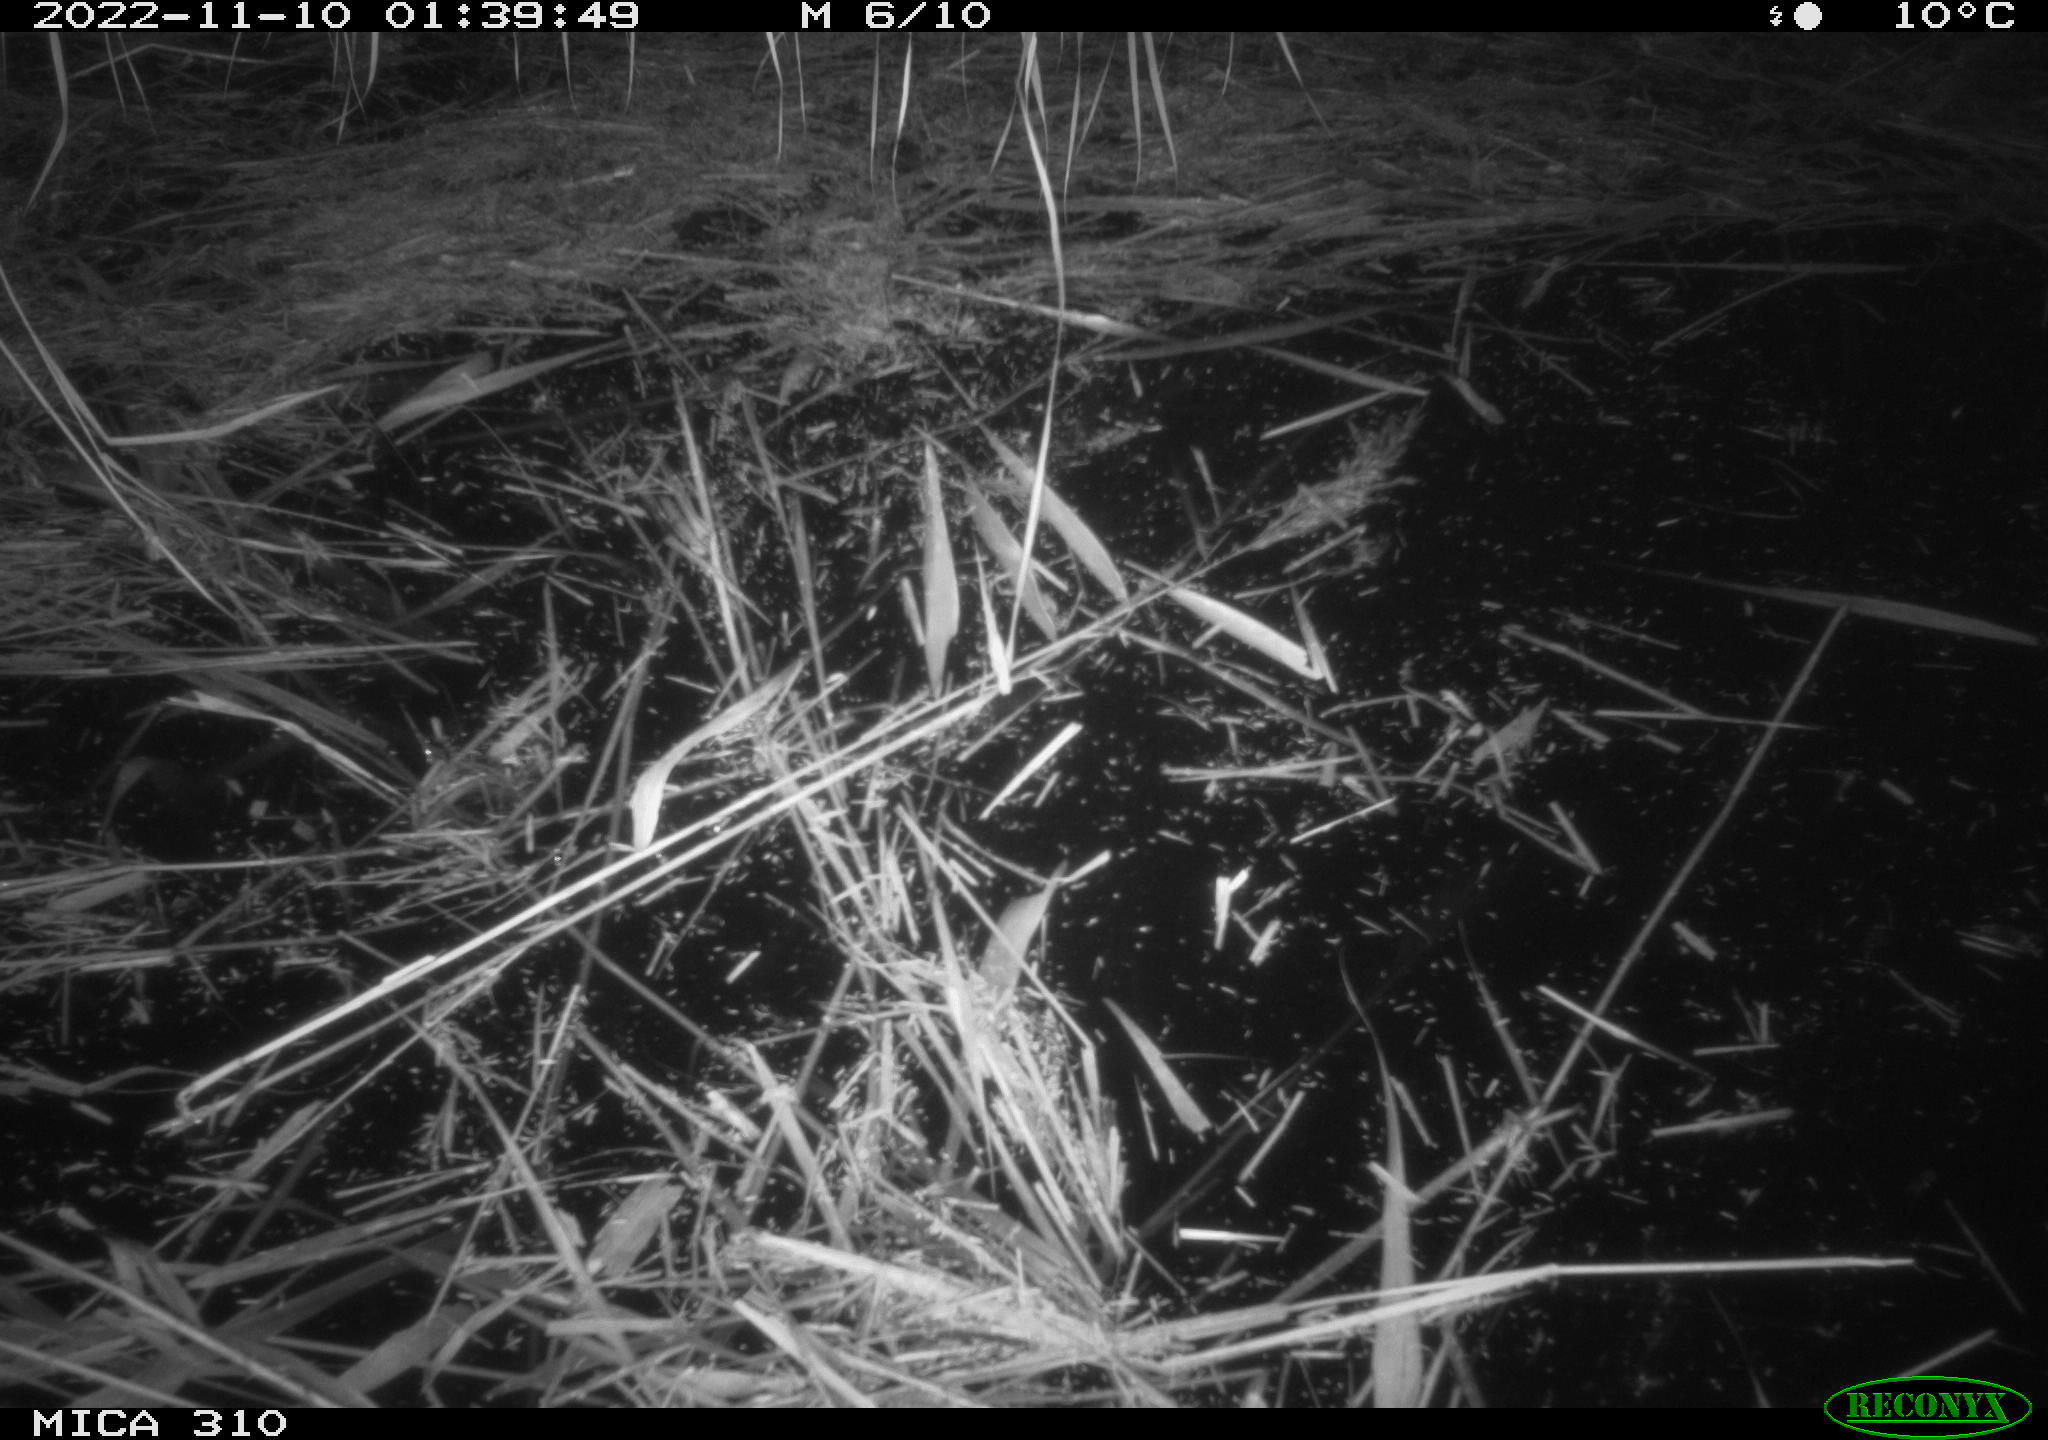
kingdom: Animalia
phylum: Chordata
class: Mammalia
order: Rodentia
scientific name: Rodentia
